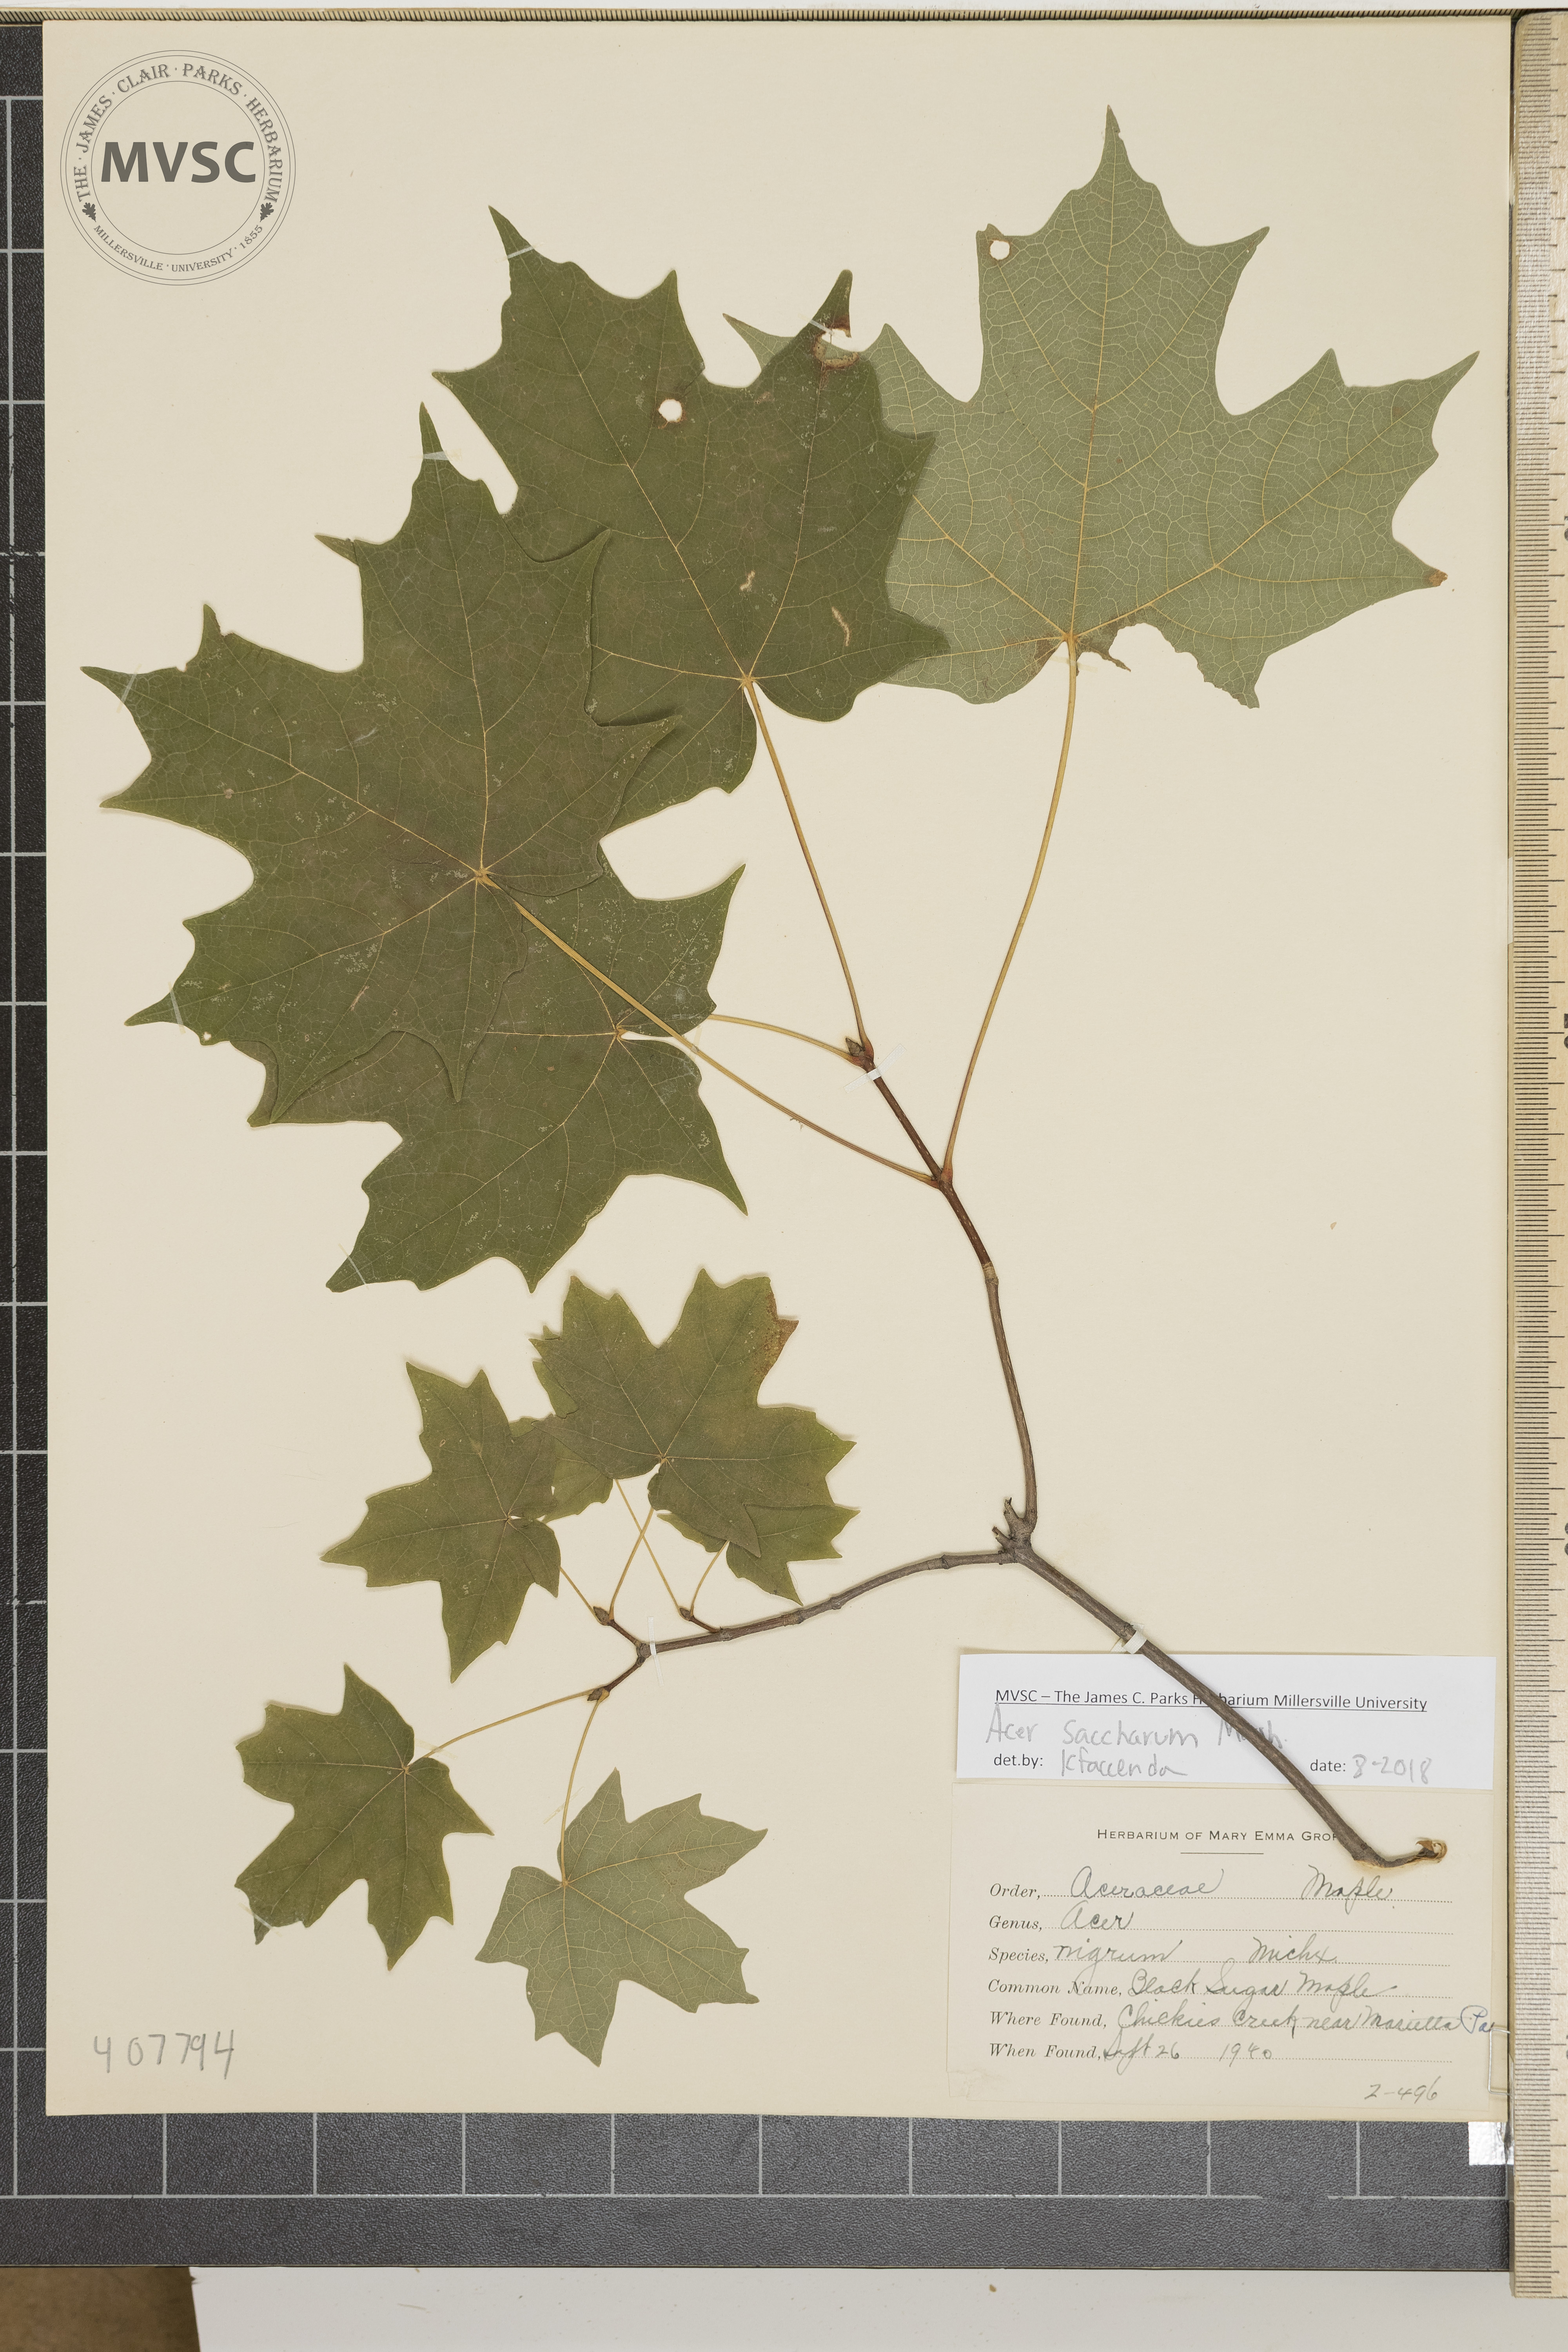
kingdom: Plantae
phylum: Tracheophyta
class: Magnoliopsida
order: Sapindales
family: Sapindaceae
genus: Acer
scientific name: Acer saccharum
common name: Black Sugar Maple
